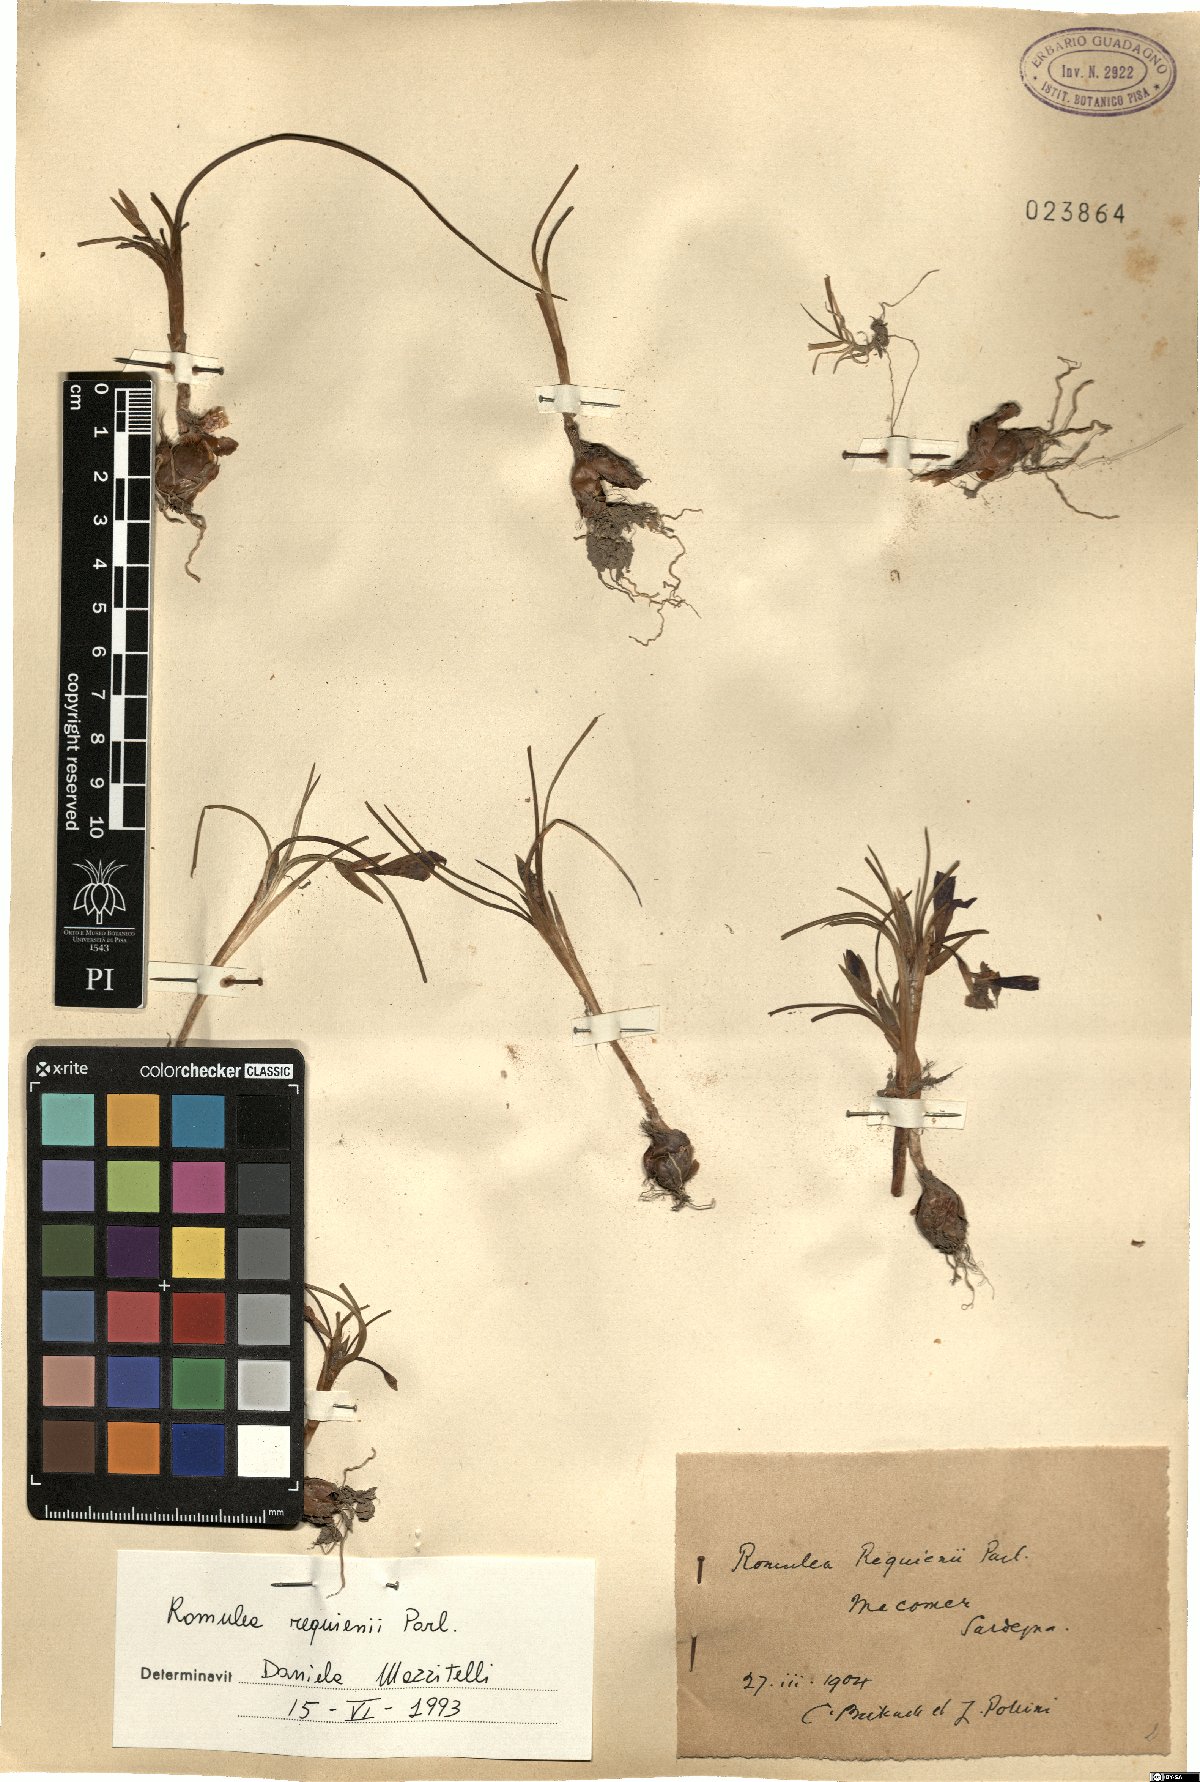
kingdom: Plantae
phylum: Tracheophyta
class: Liliopsida
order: Asparagales
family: Iridaceae
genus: Romulea
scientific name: Romulea requienii
